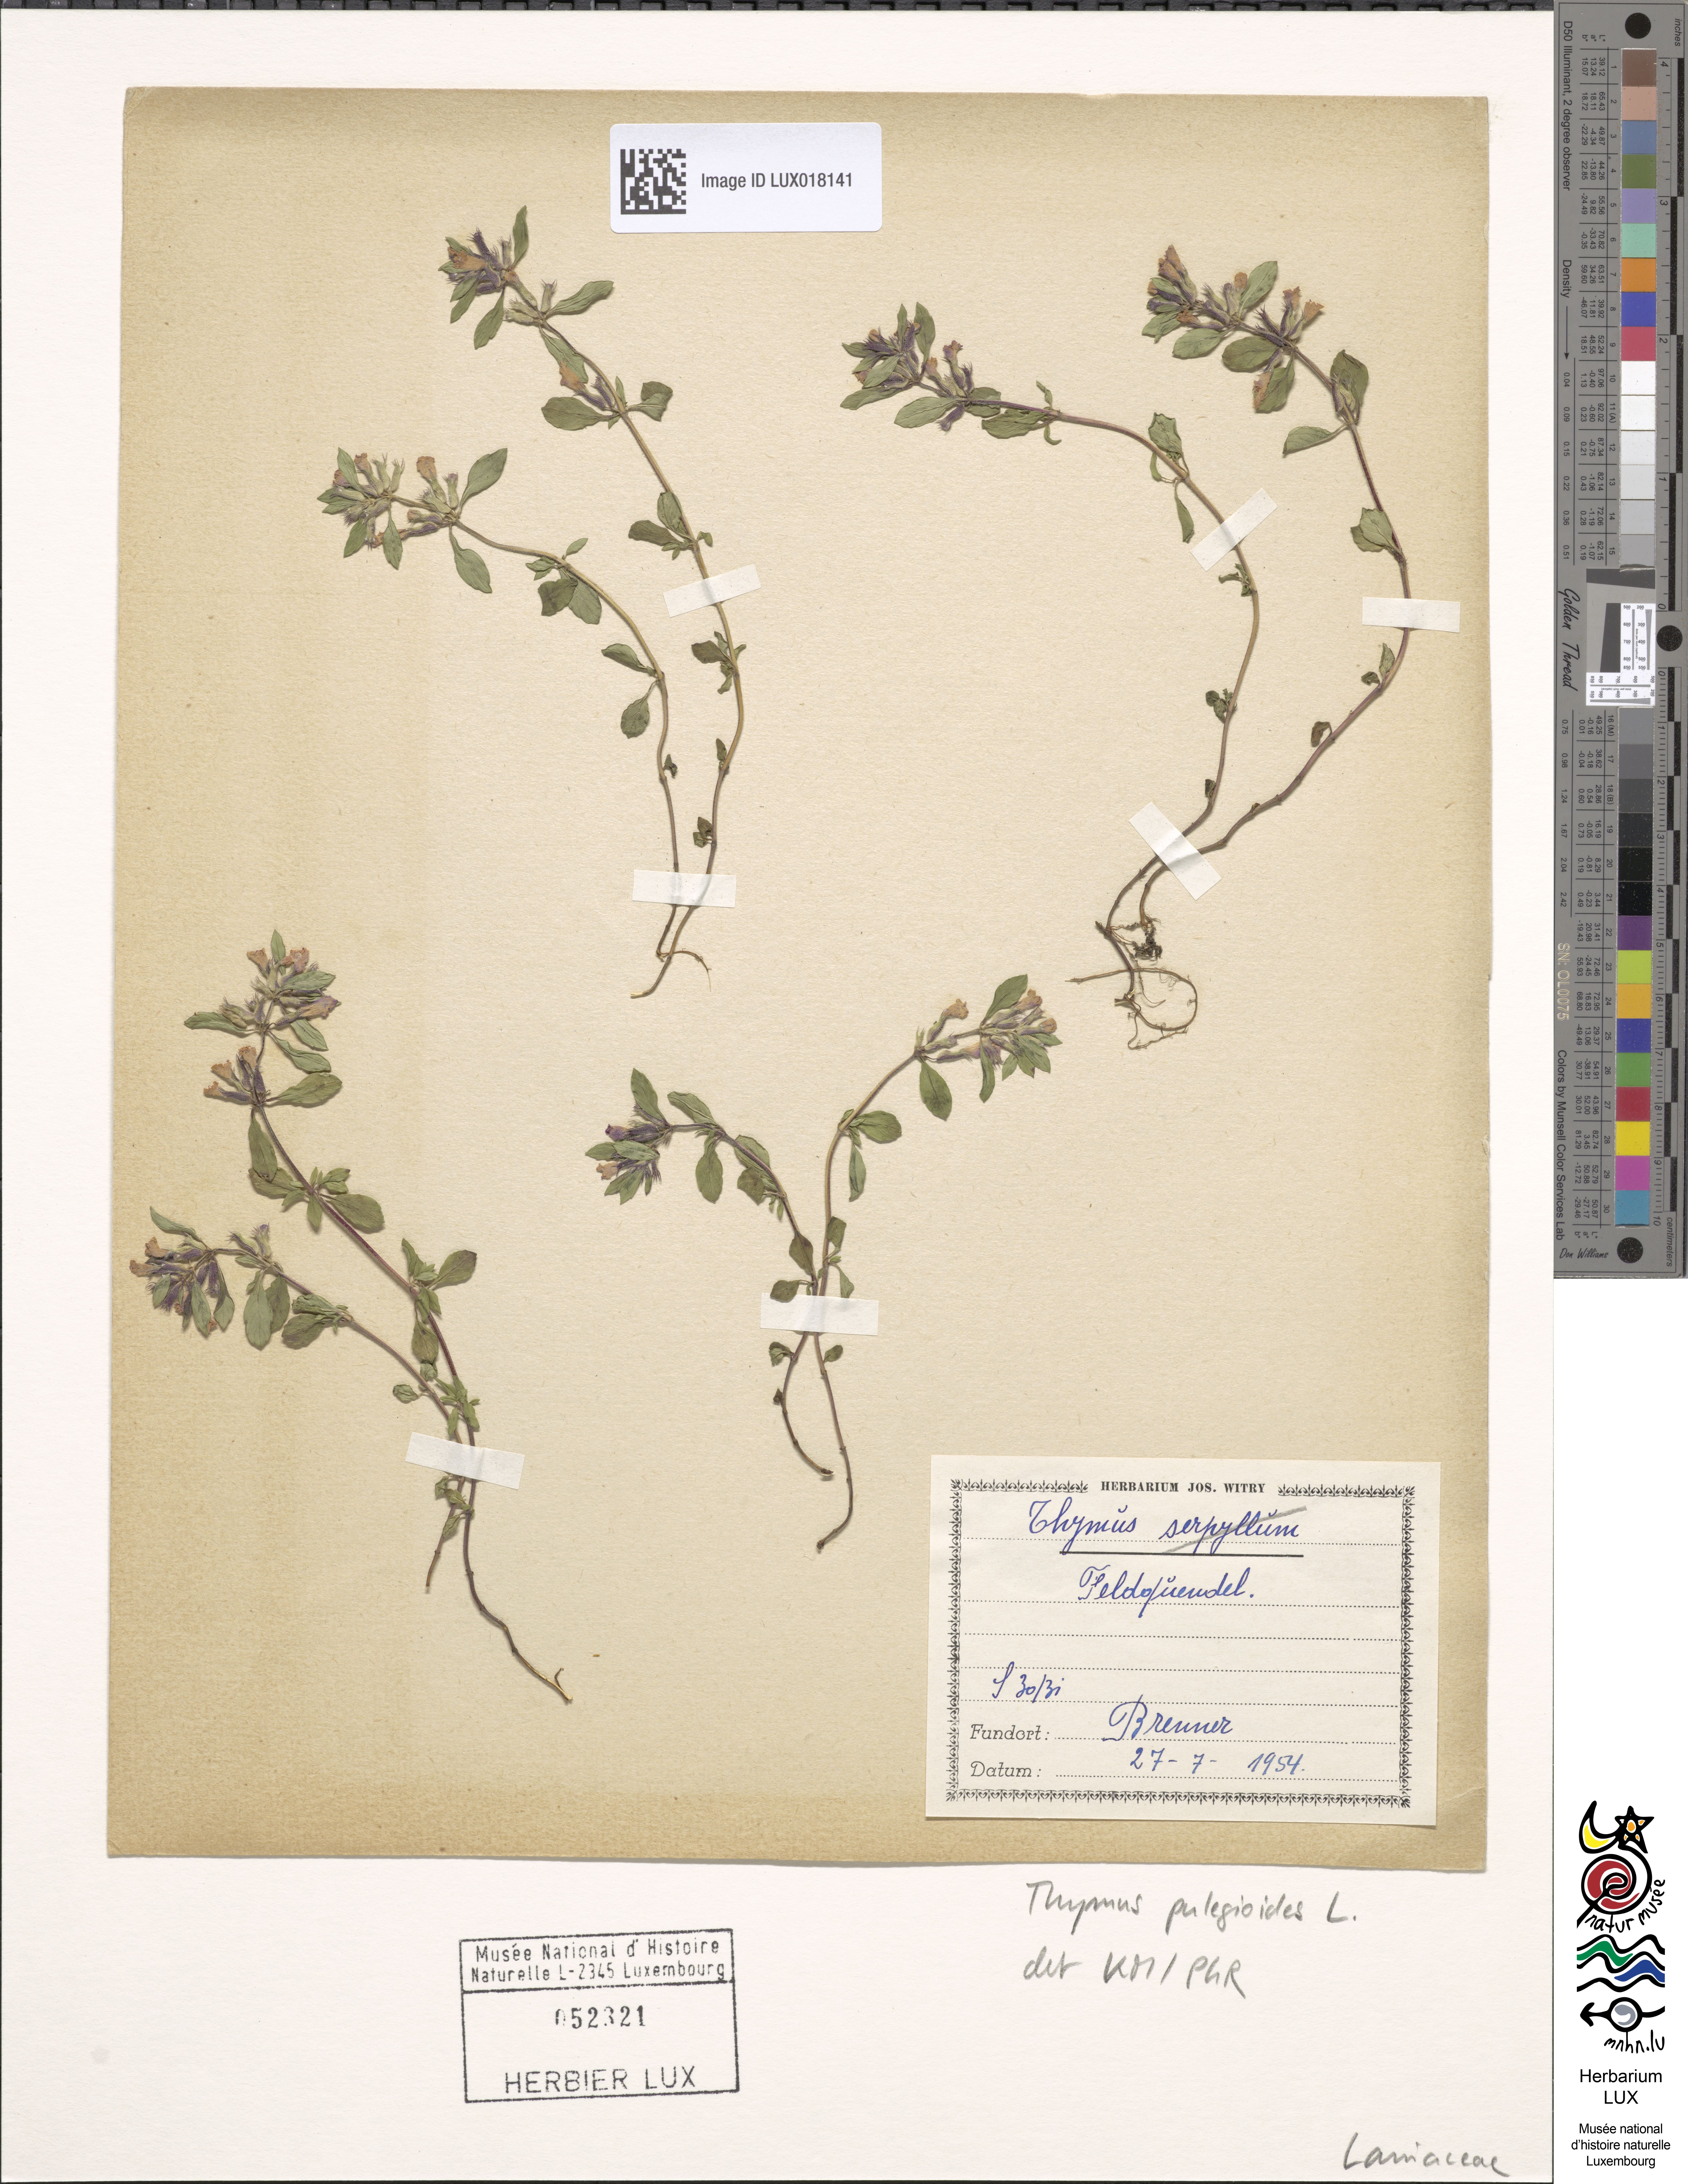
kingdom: Plantae
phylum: Tracheophyta
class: Magnoliopsida
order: Lamiales
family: Lamiaceae
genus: Thymus
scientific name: Thymus pulegioides
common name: Large thyme
